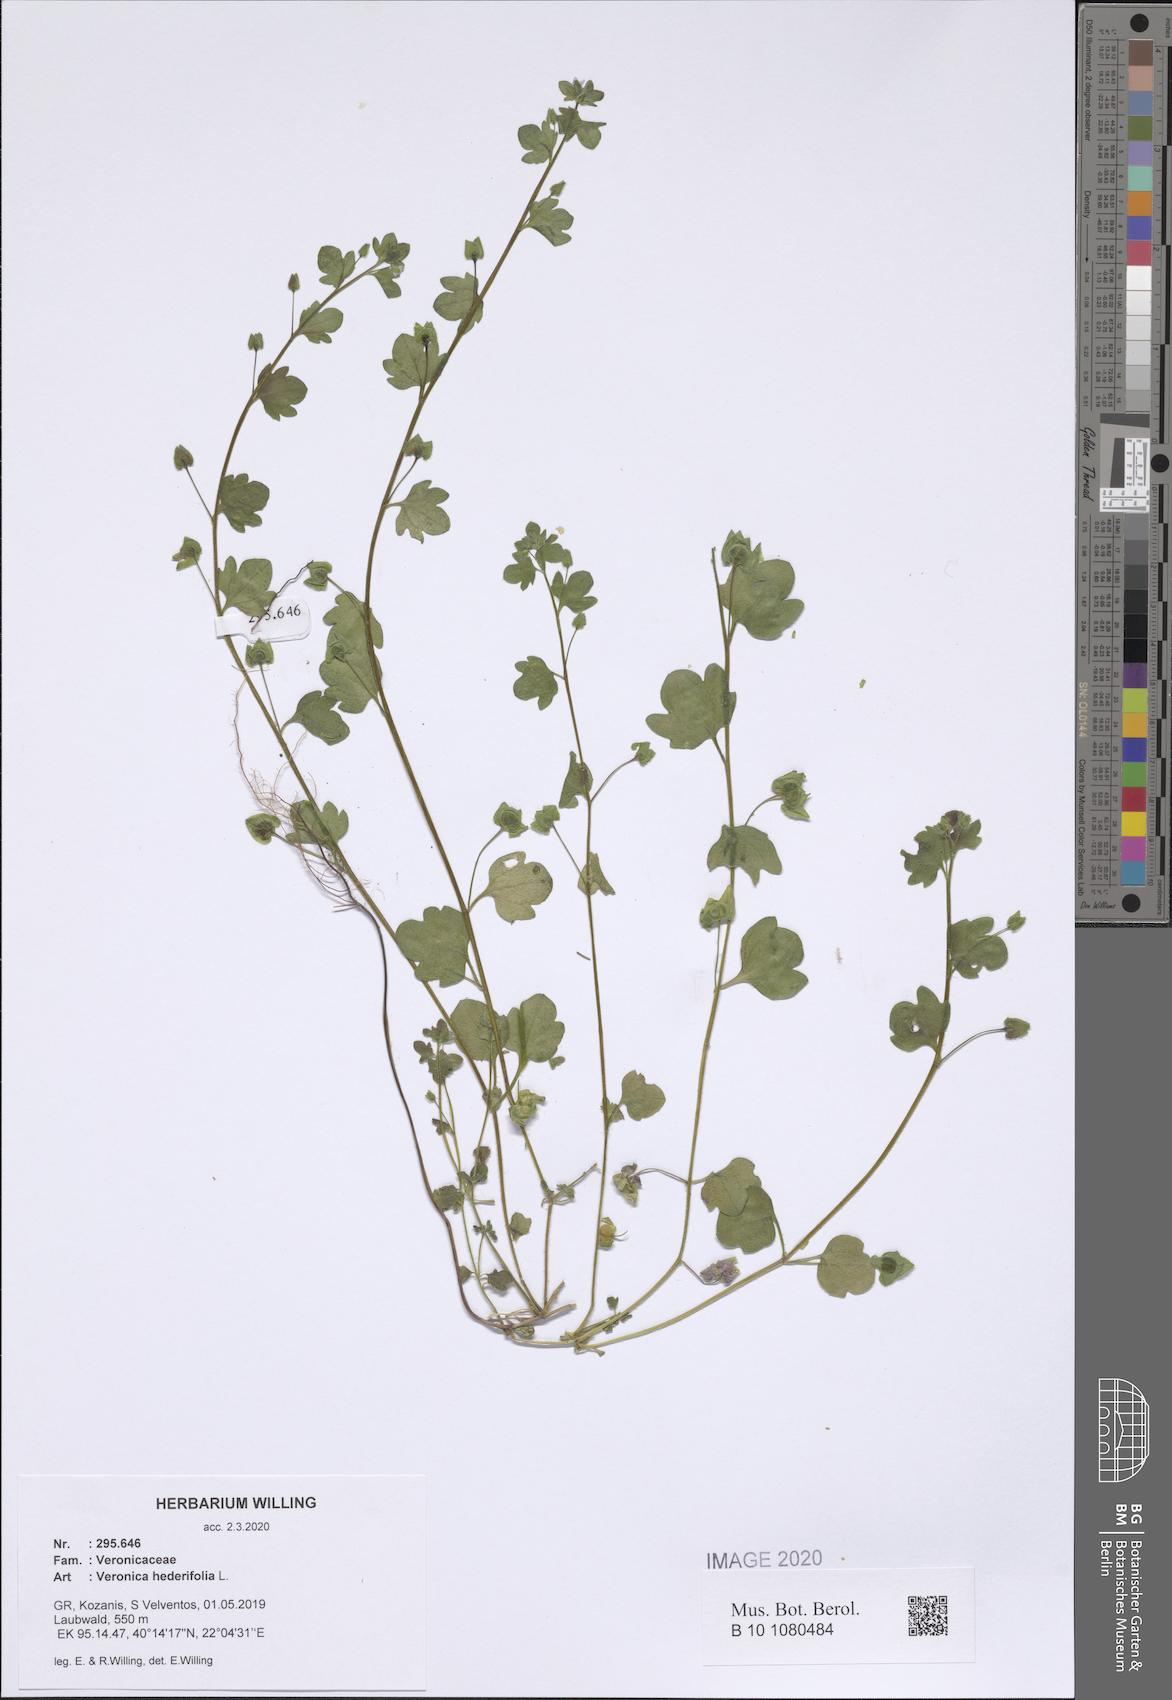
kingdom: Plantae
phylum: Tracheophyta
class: Magnoliopsida
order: Lamiales
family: Plantaginaceae
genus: Veronica
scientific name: Veronica hederifolia
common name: Ivy-leaved speedwell
